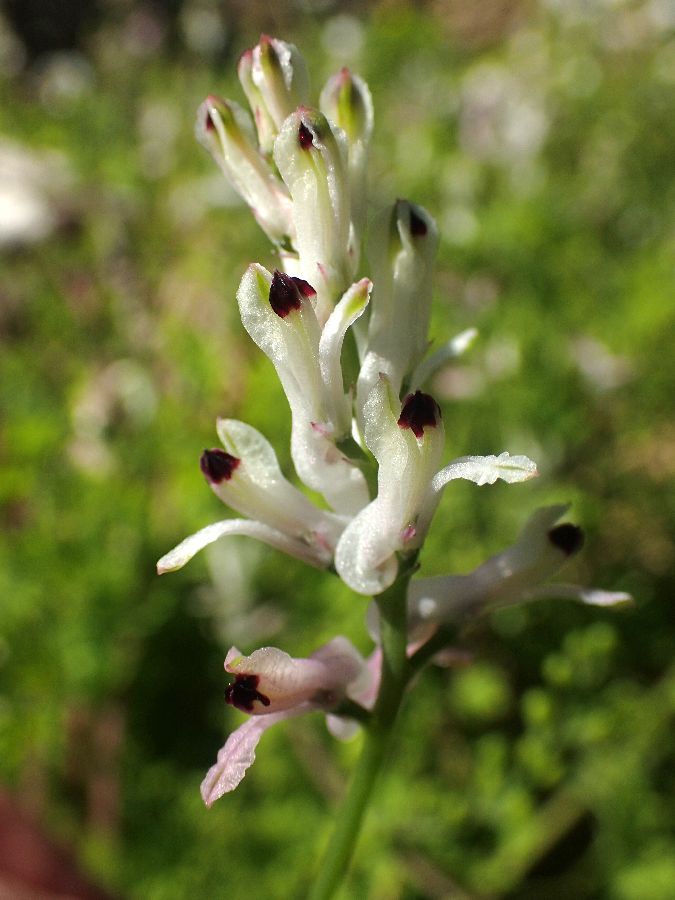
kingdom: Plantae
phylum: Tracheophyta
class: Magnoliopsida
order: Ranunculales
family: Papaveraceae
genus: Fumaria
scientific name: Fumaria bastardii
